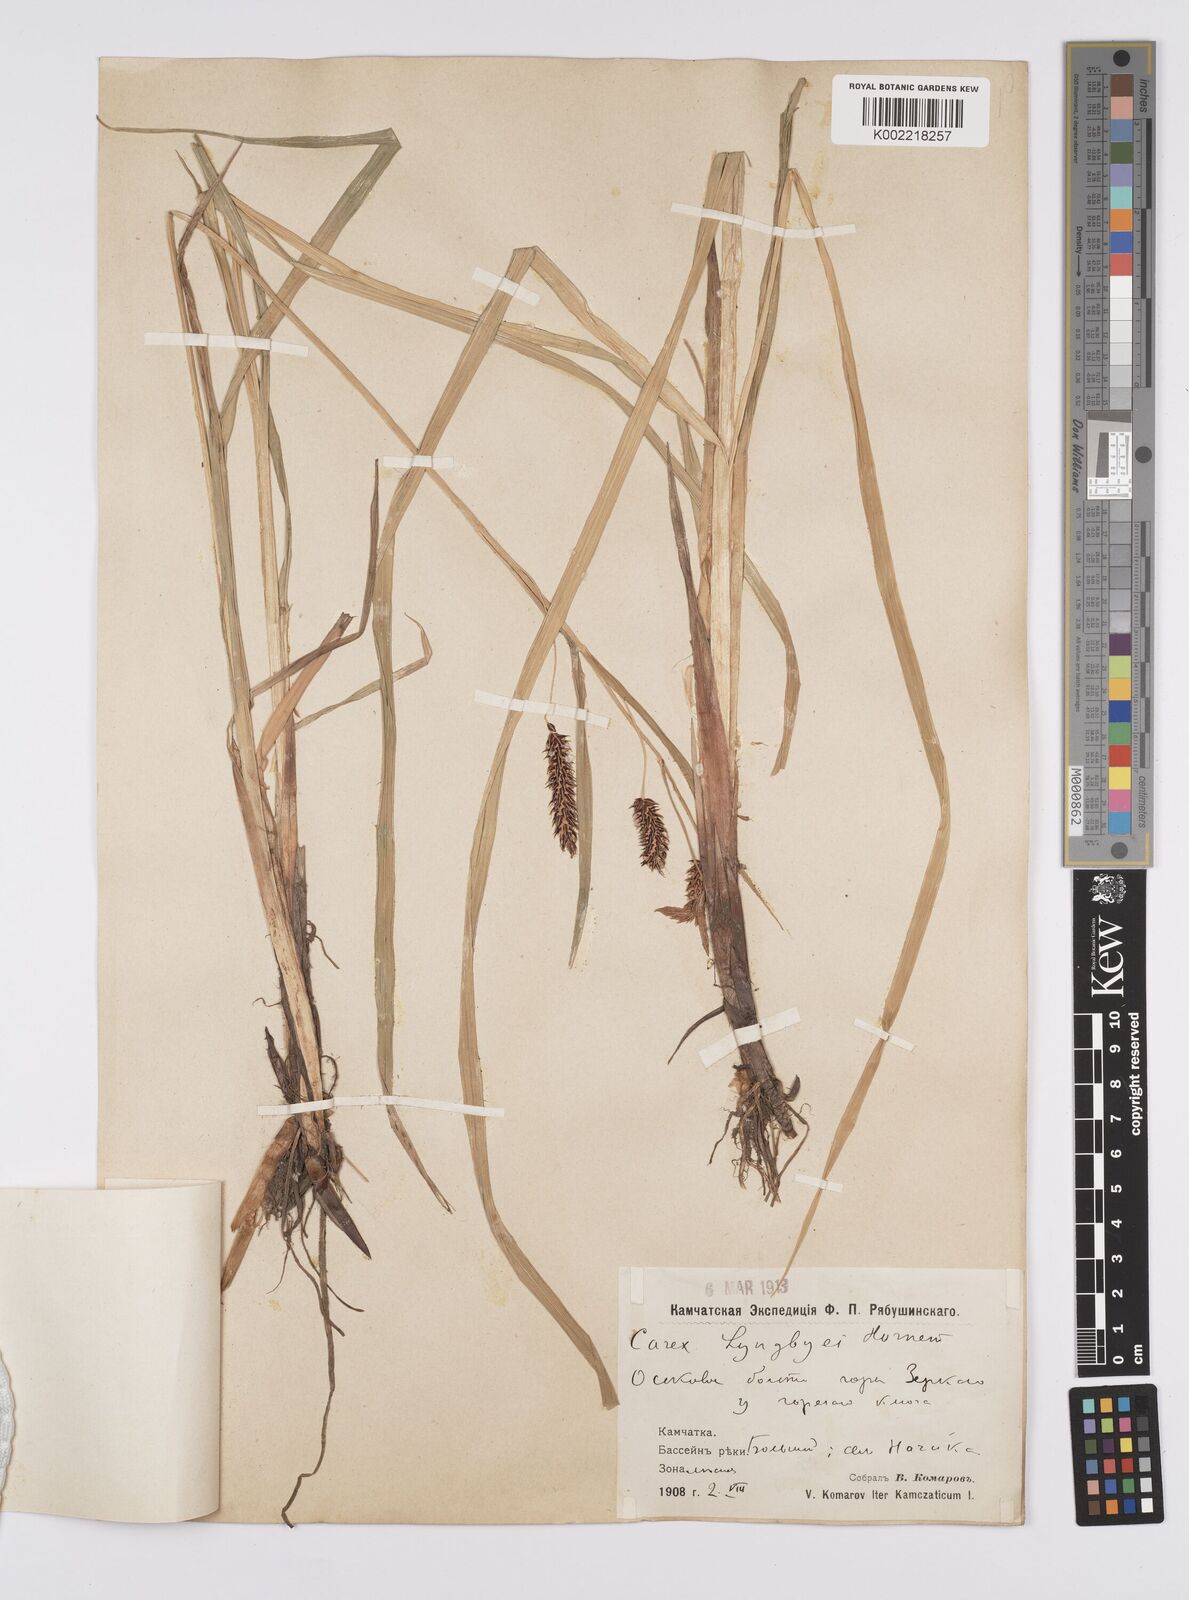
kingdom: Plantae
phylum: Tracheophyta
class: Liliopsida
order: Poales
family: Cyperaceae
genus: Carex
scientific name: Carex lyngbyei
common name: Lyngbye's sedge
